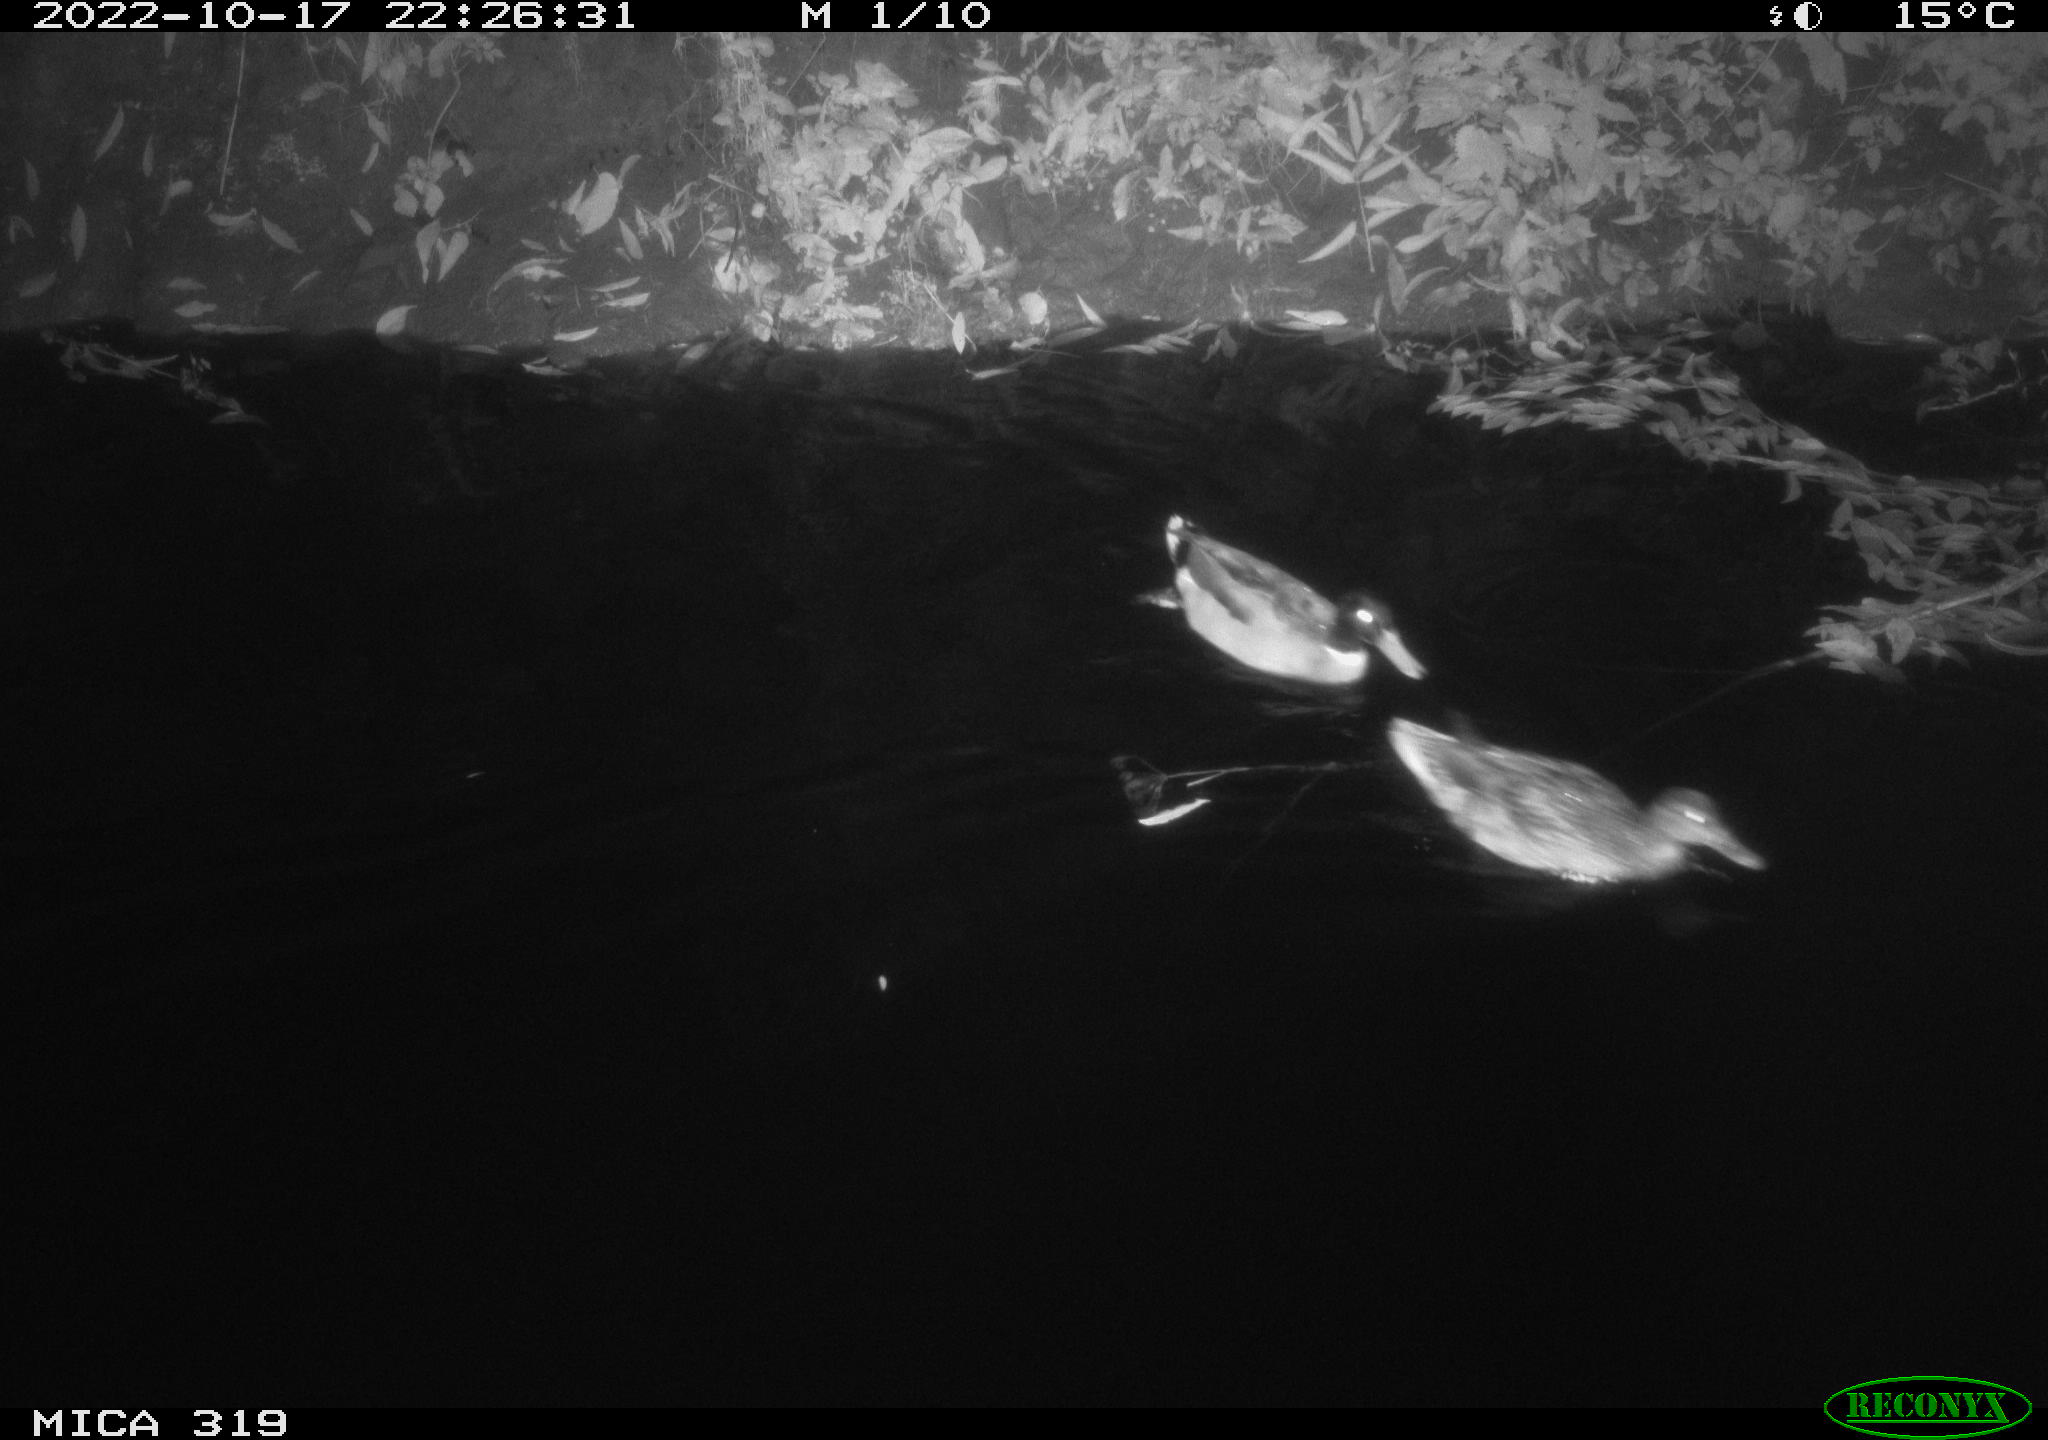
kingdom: Animalia
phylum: Chordata
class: Aves
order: Anseriformes
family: Anatidae
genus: Anas
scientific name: Anas
